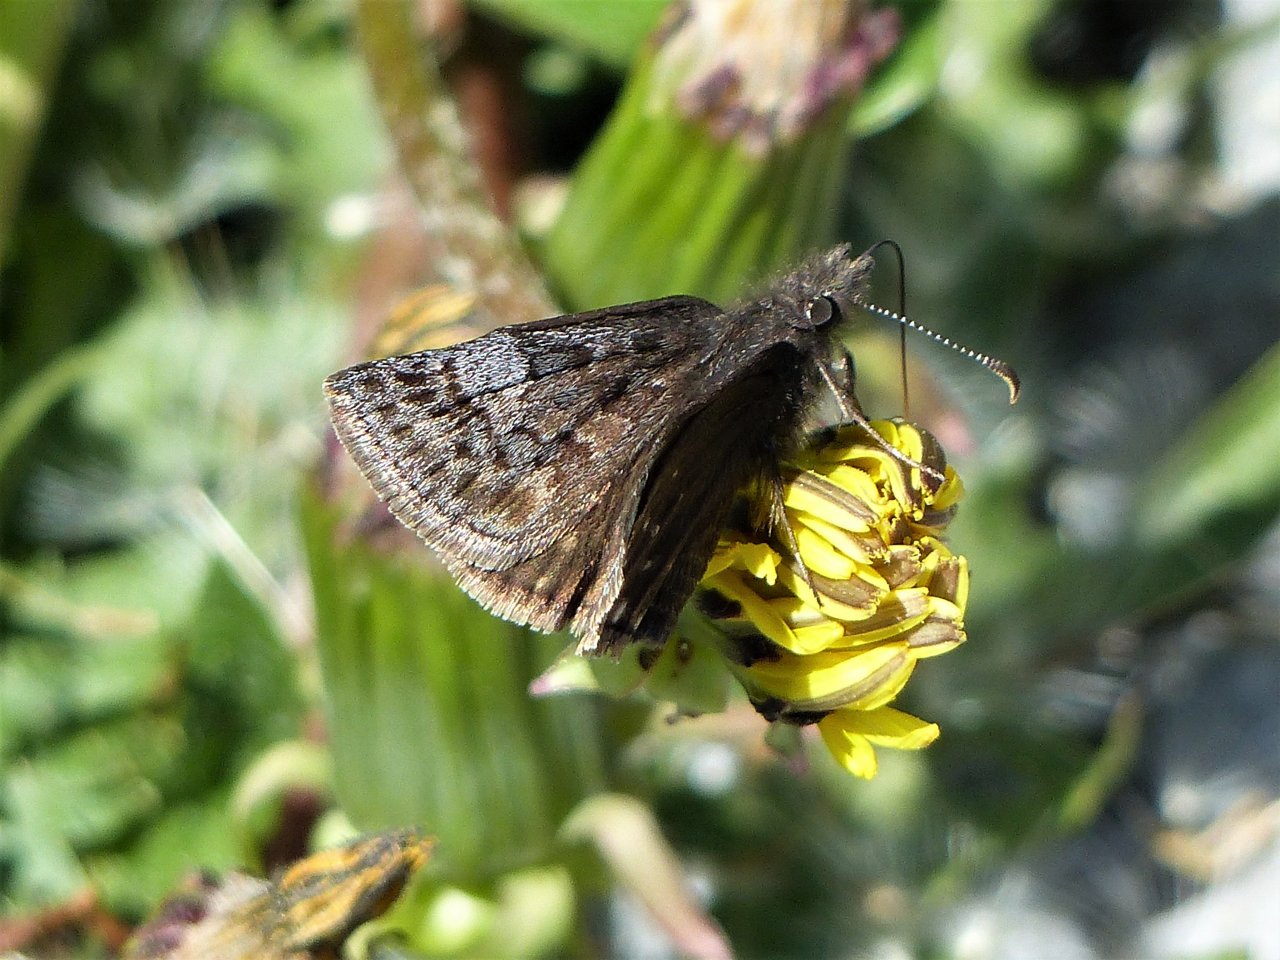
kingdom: Animalia
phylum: Arthropoda
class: Insecta
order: Lepidoptera
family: Hesperiidae
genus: Erynnis
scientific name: Erynnis icelus
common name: Dreamy Duskywing
